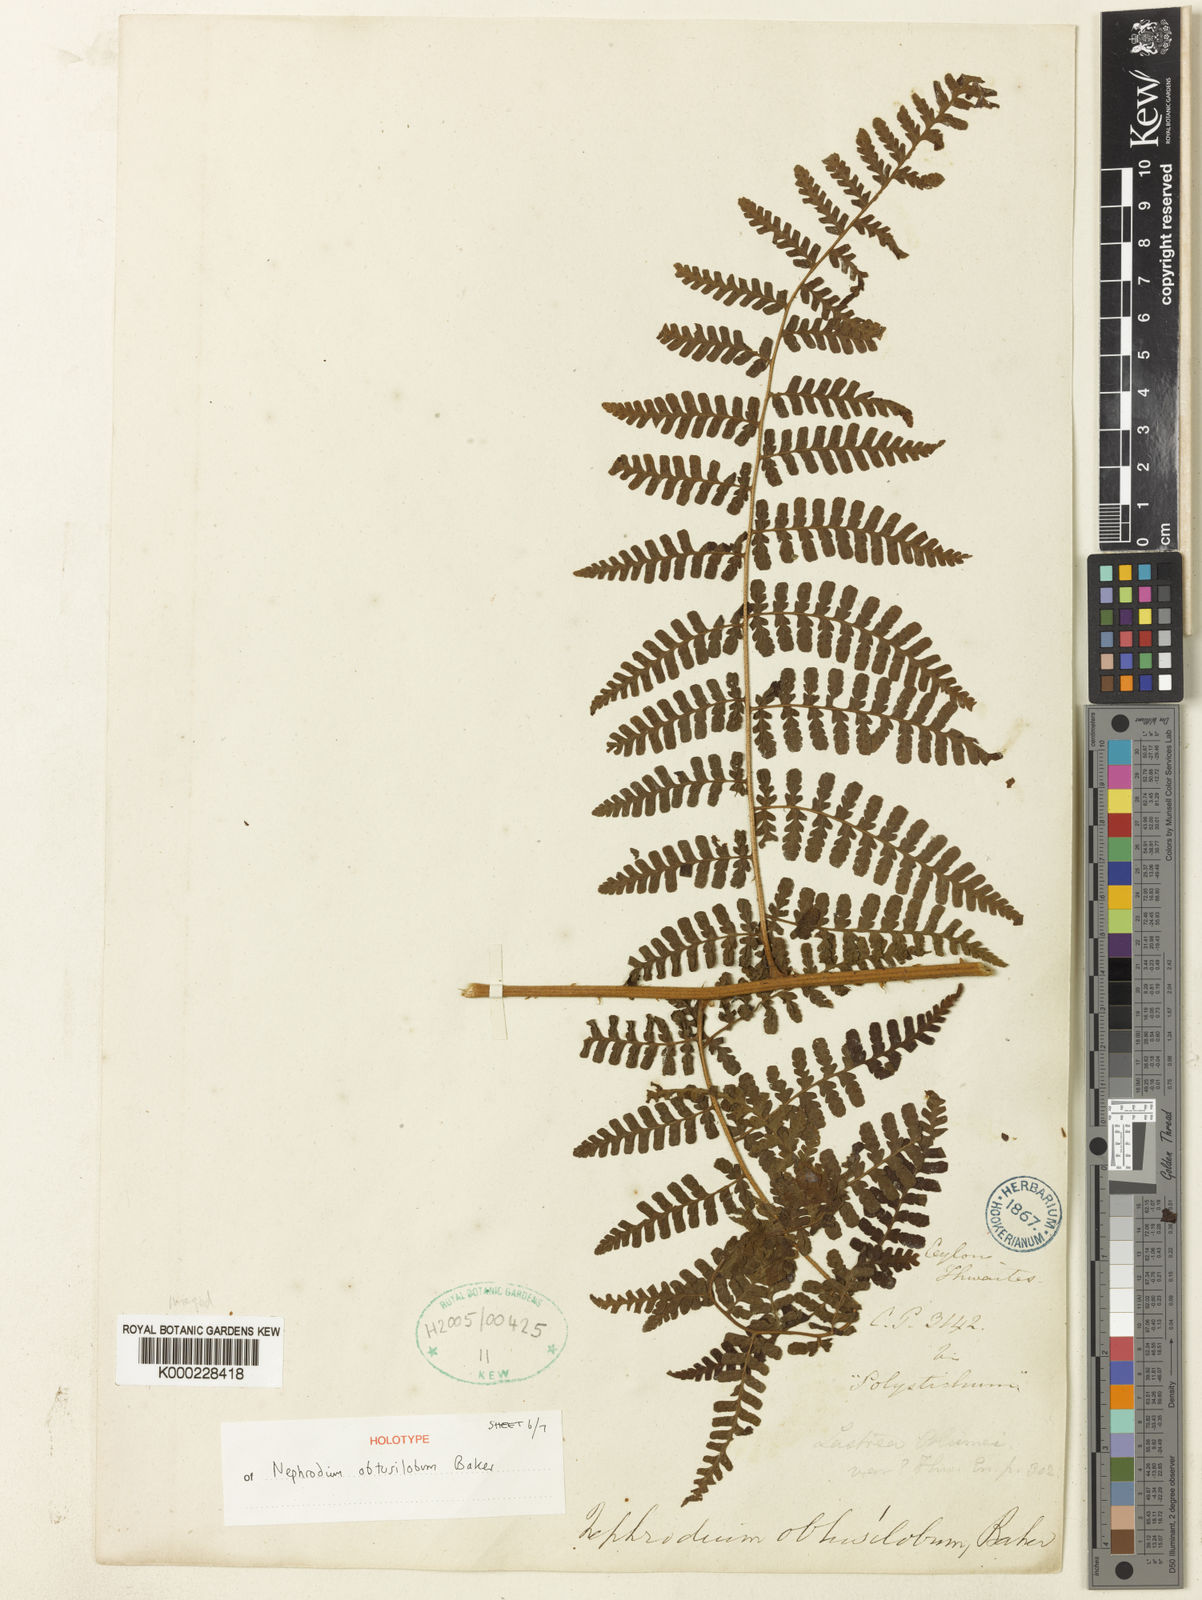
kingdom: Plantae
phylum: Tracheophyta
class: Polypodiopsida
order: Polypodiales
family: Dryopteridaceae
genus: Dryopteris
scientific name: Dryopteris obtusiloba
